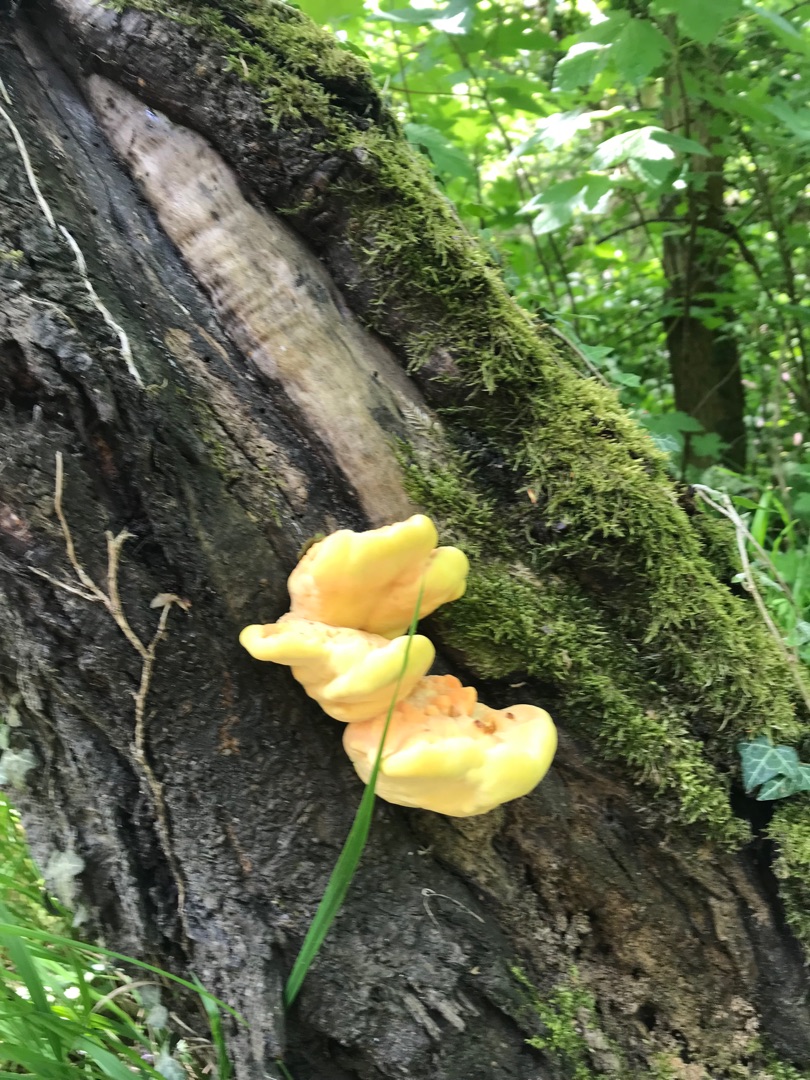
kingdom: Fungi
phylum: Basidiomycota
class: Agaricomycetes
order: Polyporales
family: Laetiporaceae
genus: Laetiporus
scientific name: Laetiporus sulphureus
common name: Svovlporesvamp
